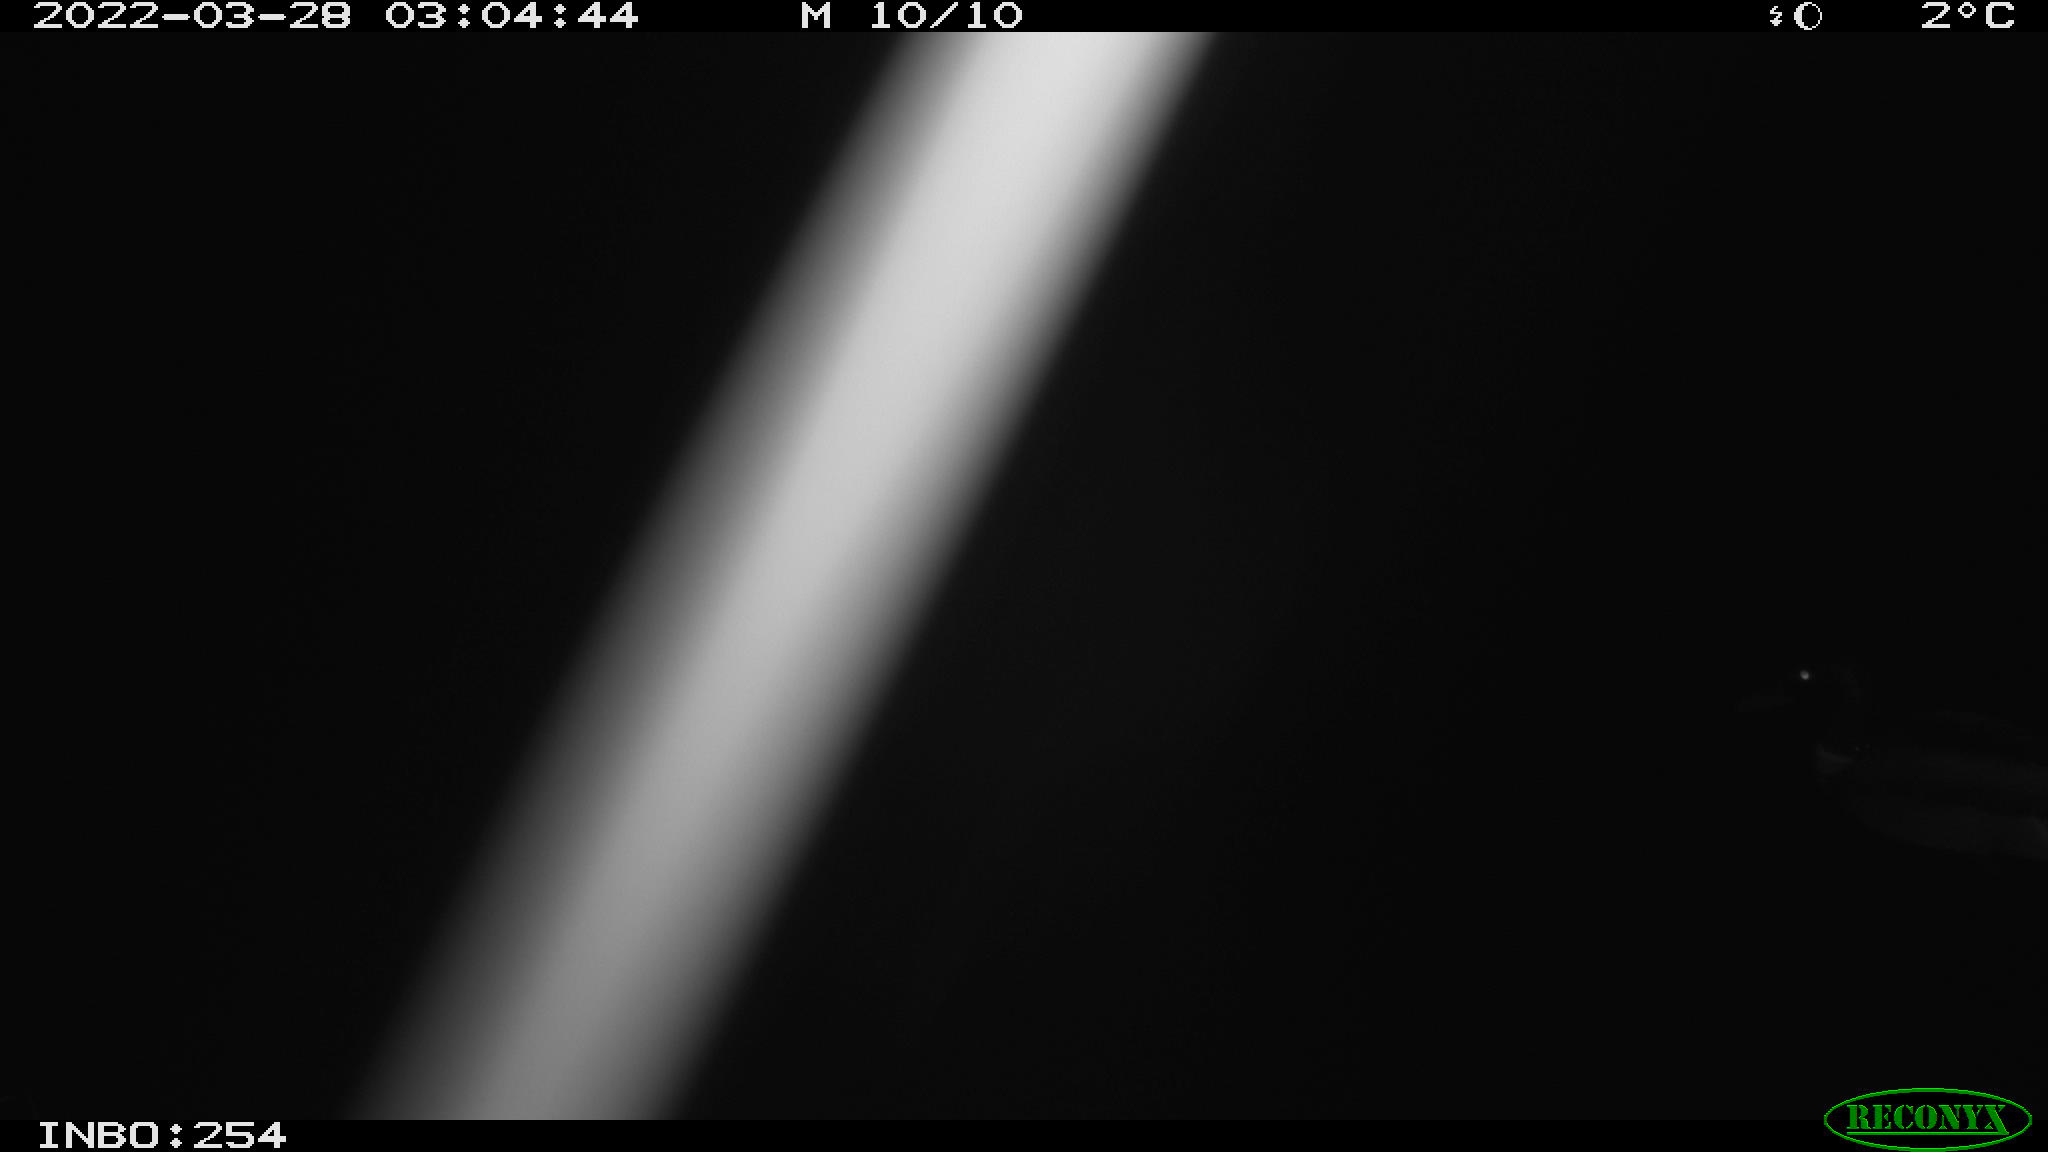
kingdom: Animalia
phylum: Chordata
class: Aves
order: Anseriformes
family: Anatidae
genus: Anas
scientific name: Anas platyrhynchos
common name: Mallard
